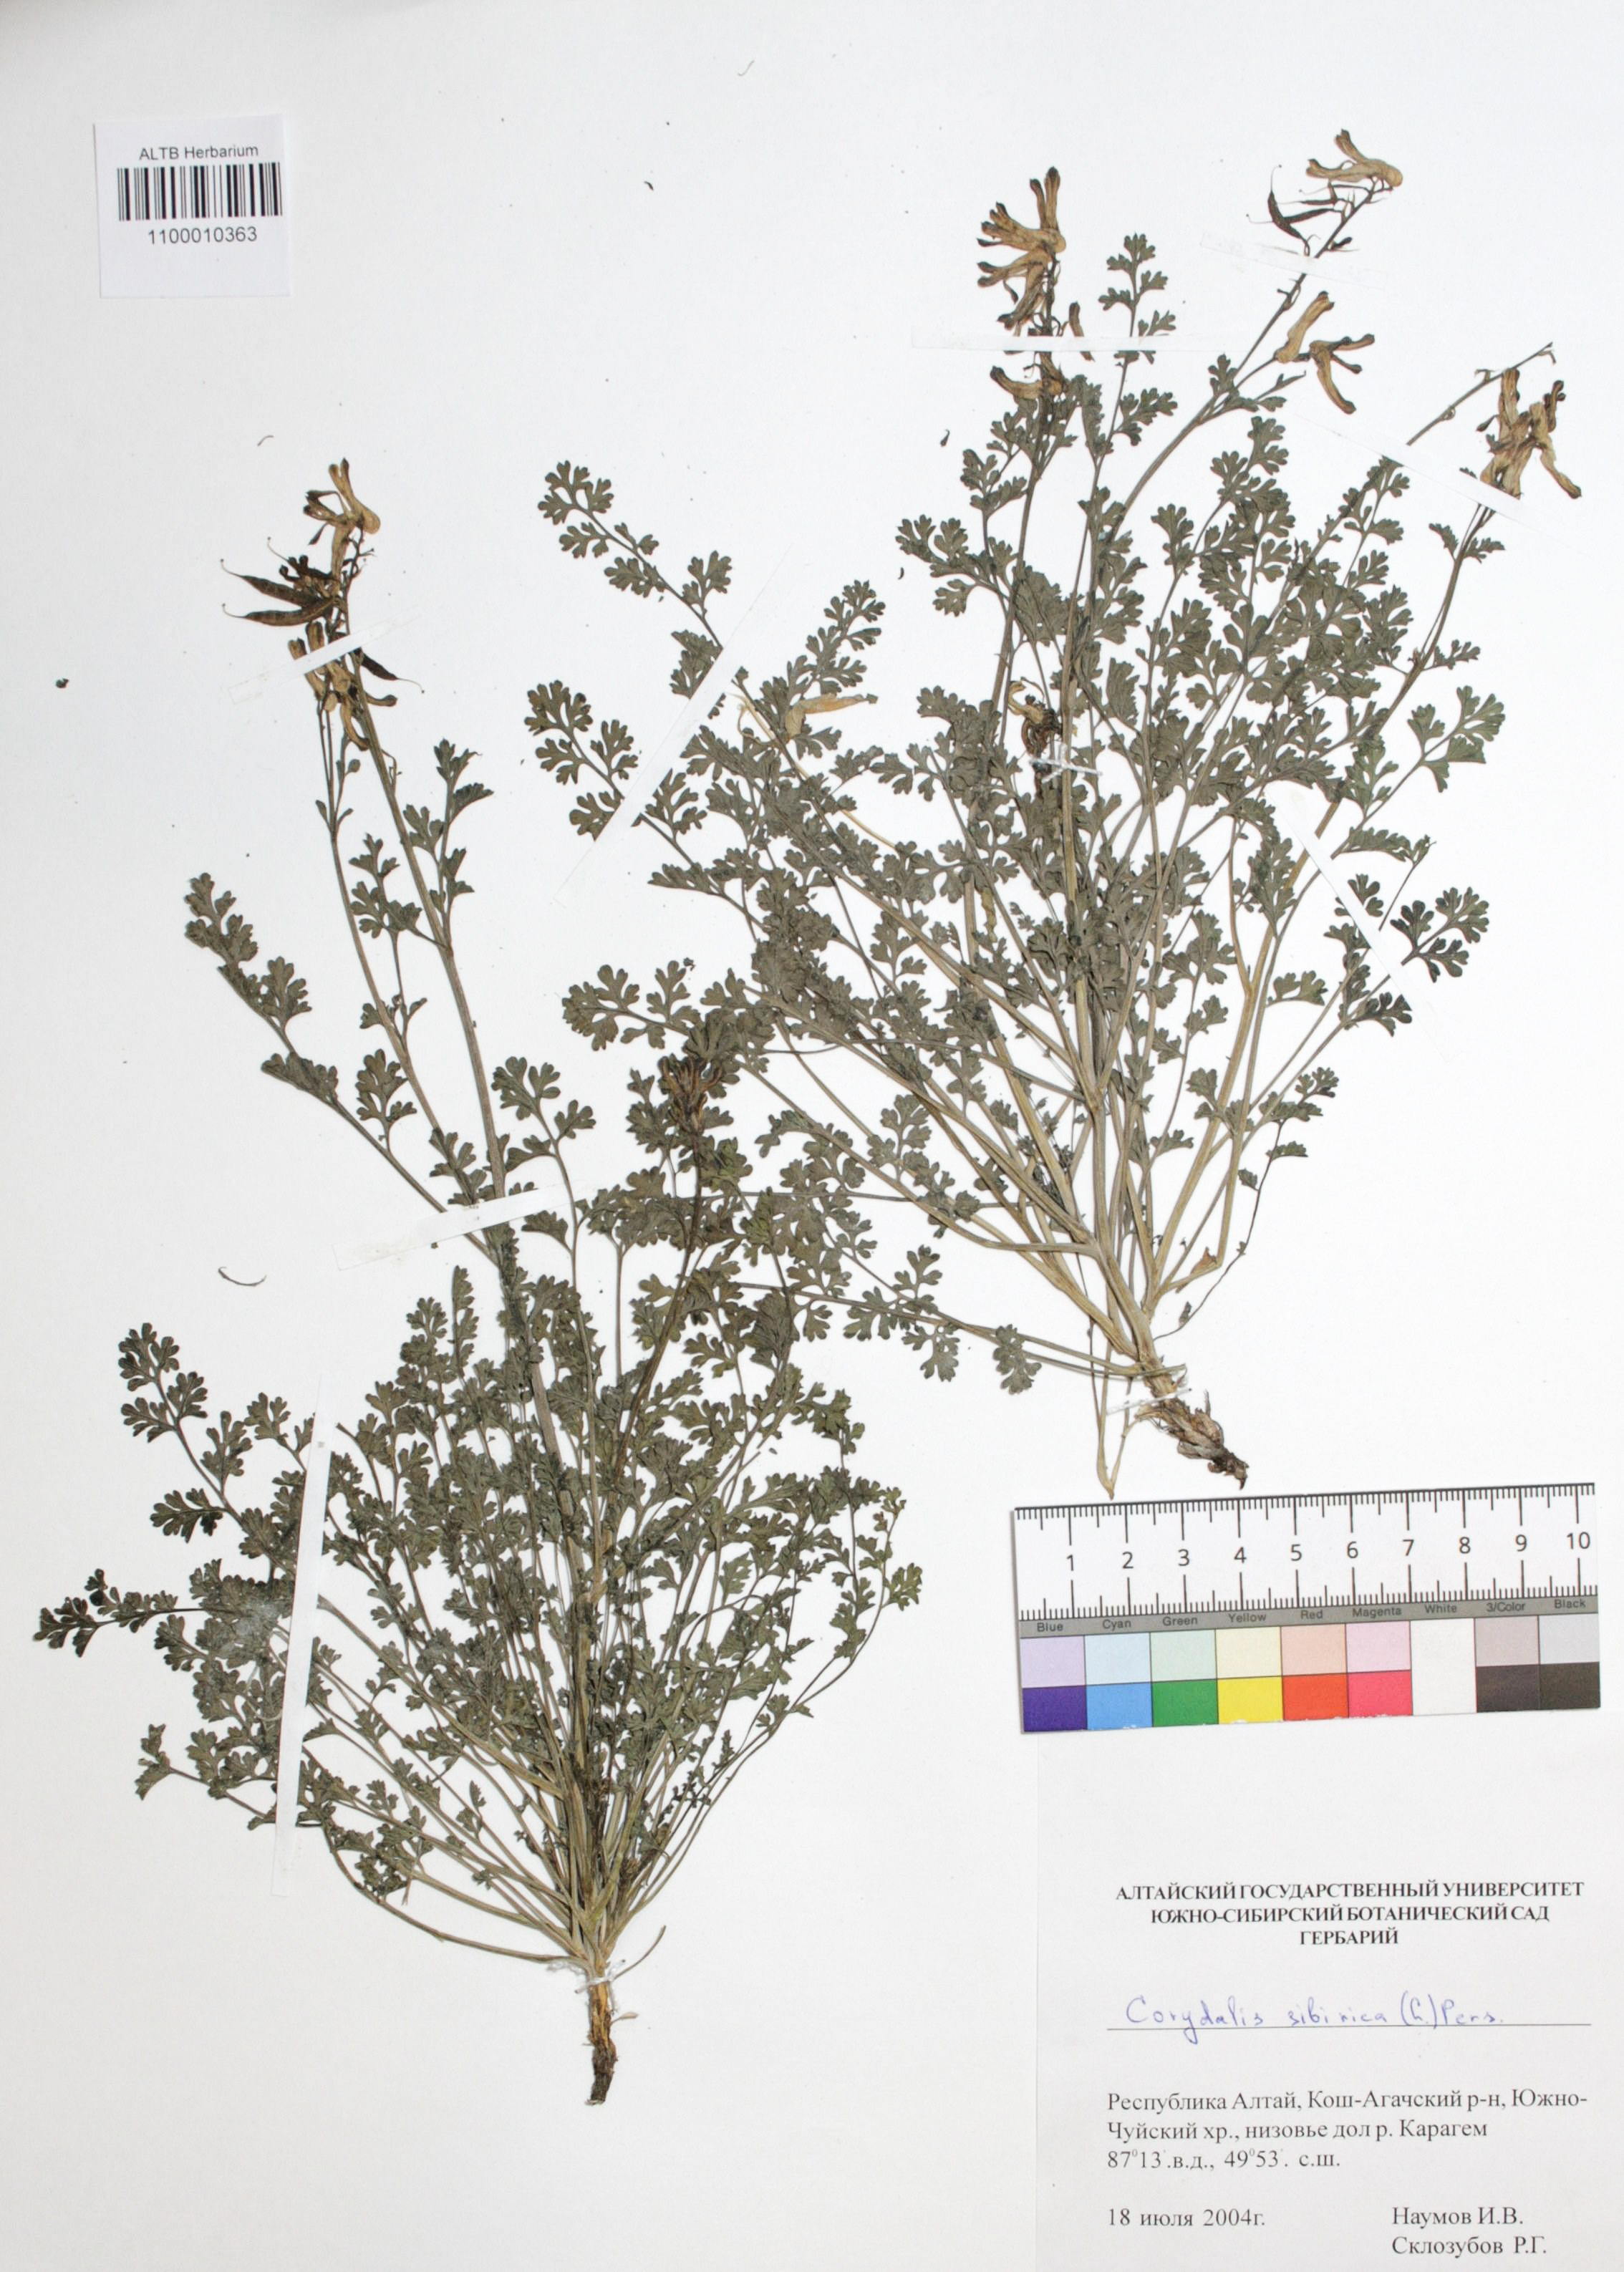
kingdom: Plantae
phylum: Tracheophyta
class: Magnoliopsida
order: Ranunculales
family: Papaveraceae
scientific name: Papaveraceae
